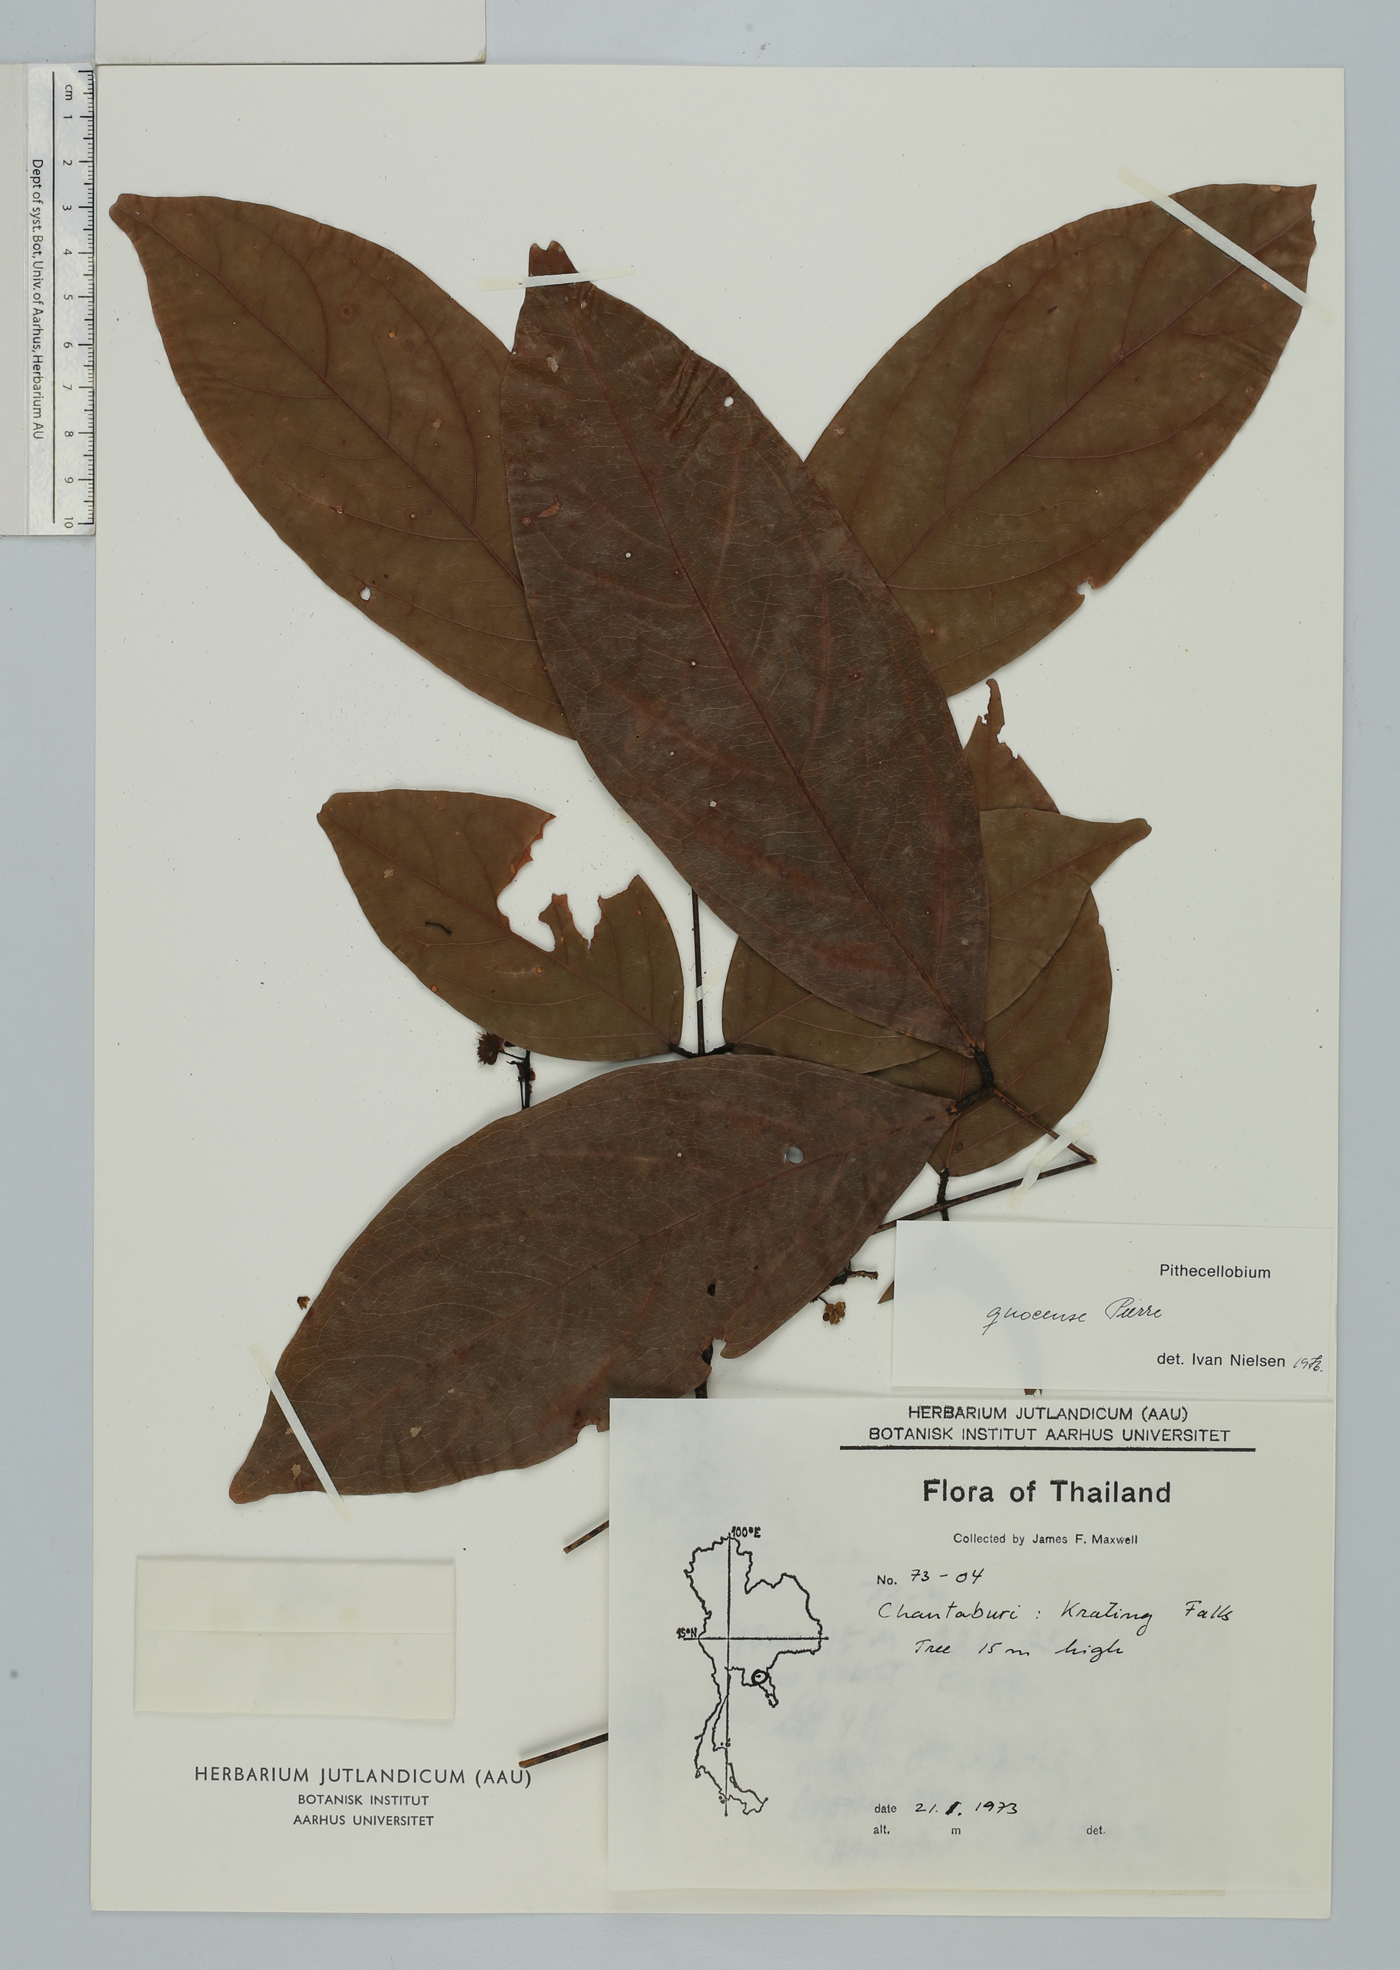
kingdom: Plantae
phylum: Tracheophyta
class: Magnoliopsida
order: Fabales
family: Fabaceae
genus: Archidendron
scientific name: Archidendron quocense
